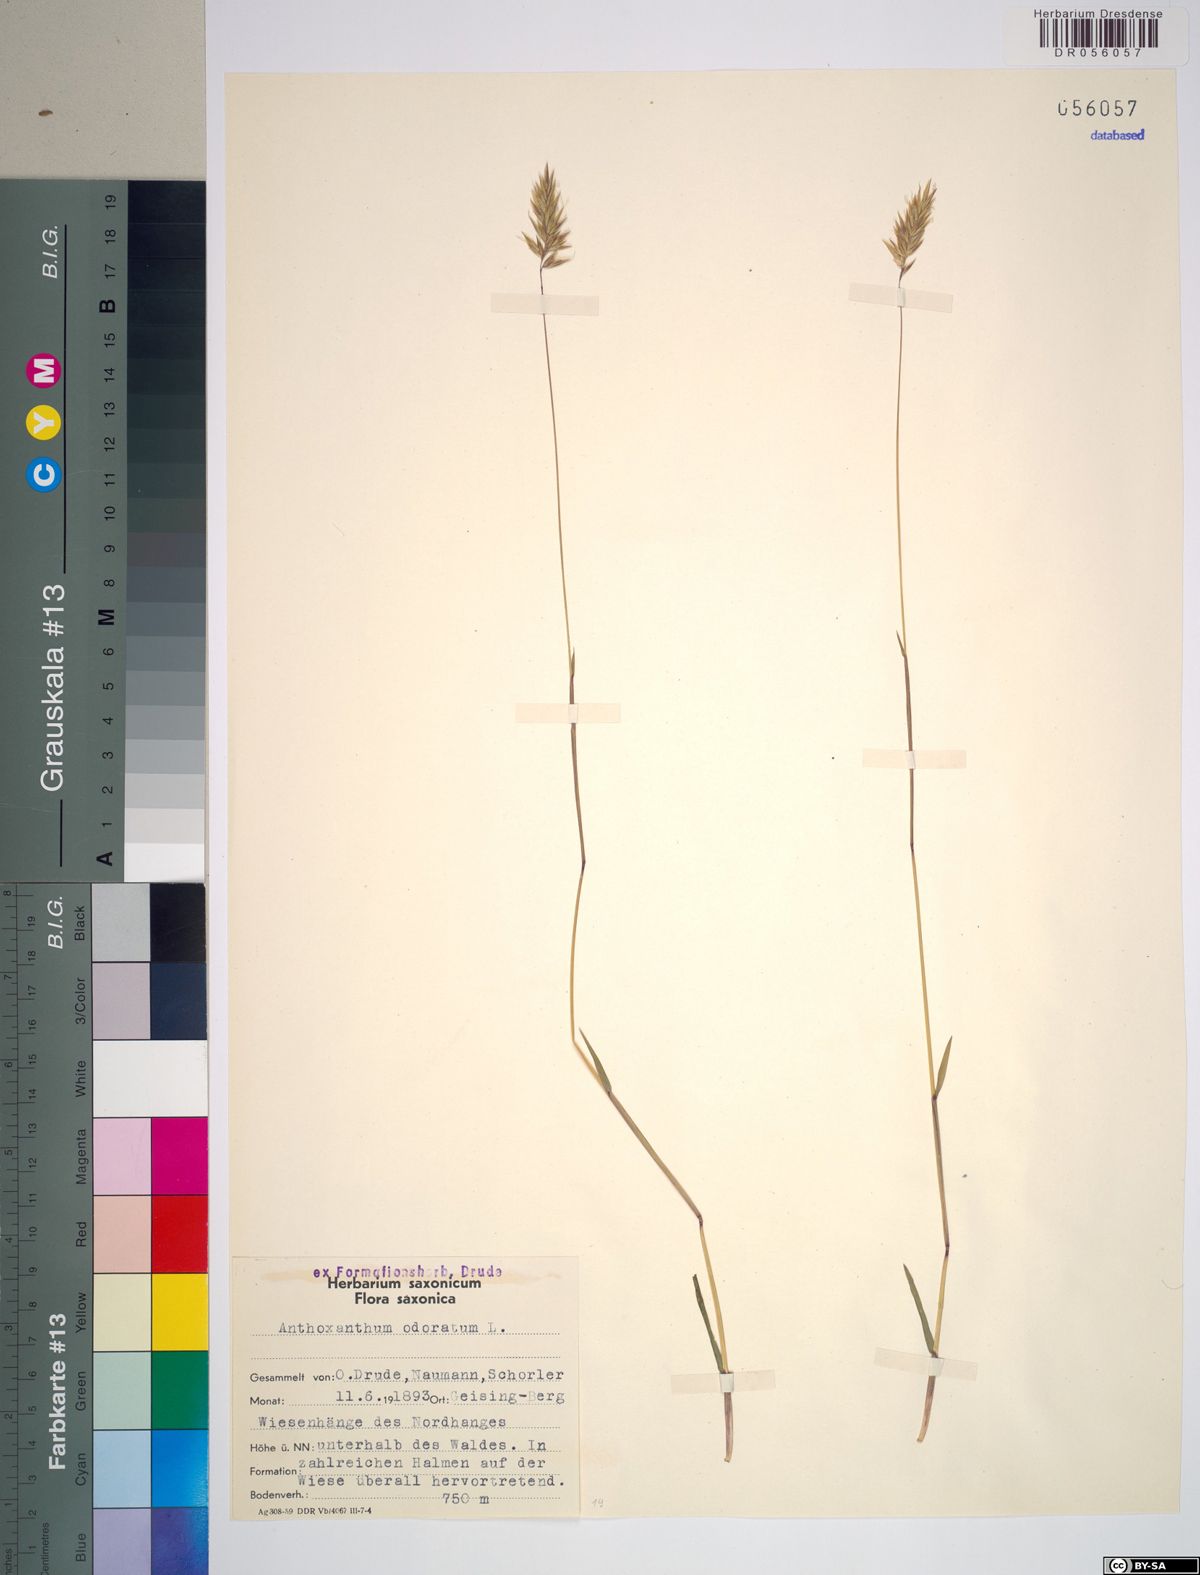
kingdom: Plantae
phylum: Tracheophyta
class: Liliopsida
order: Poales
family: Poaceae
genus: Anthoxanthum
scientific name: Anthoxanthum odoratum
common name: Sweet vernalgrass
